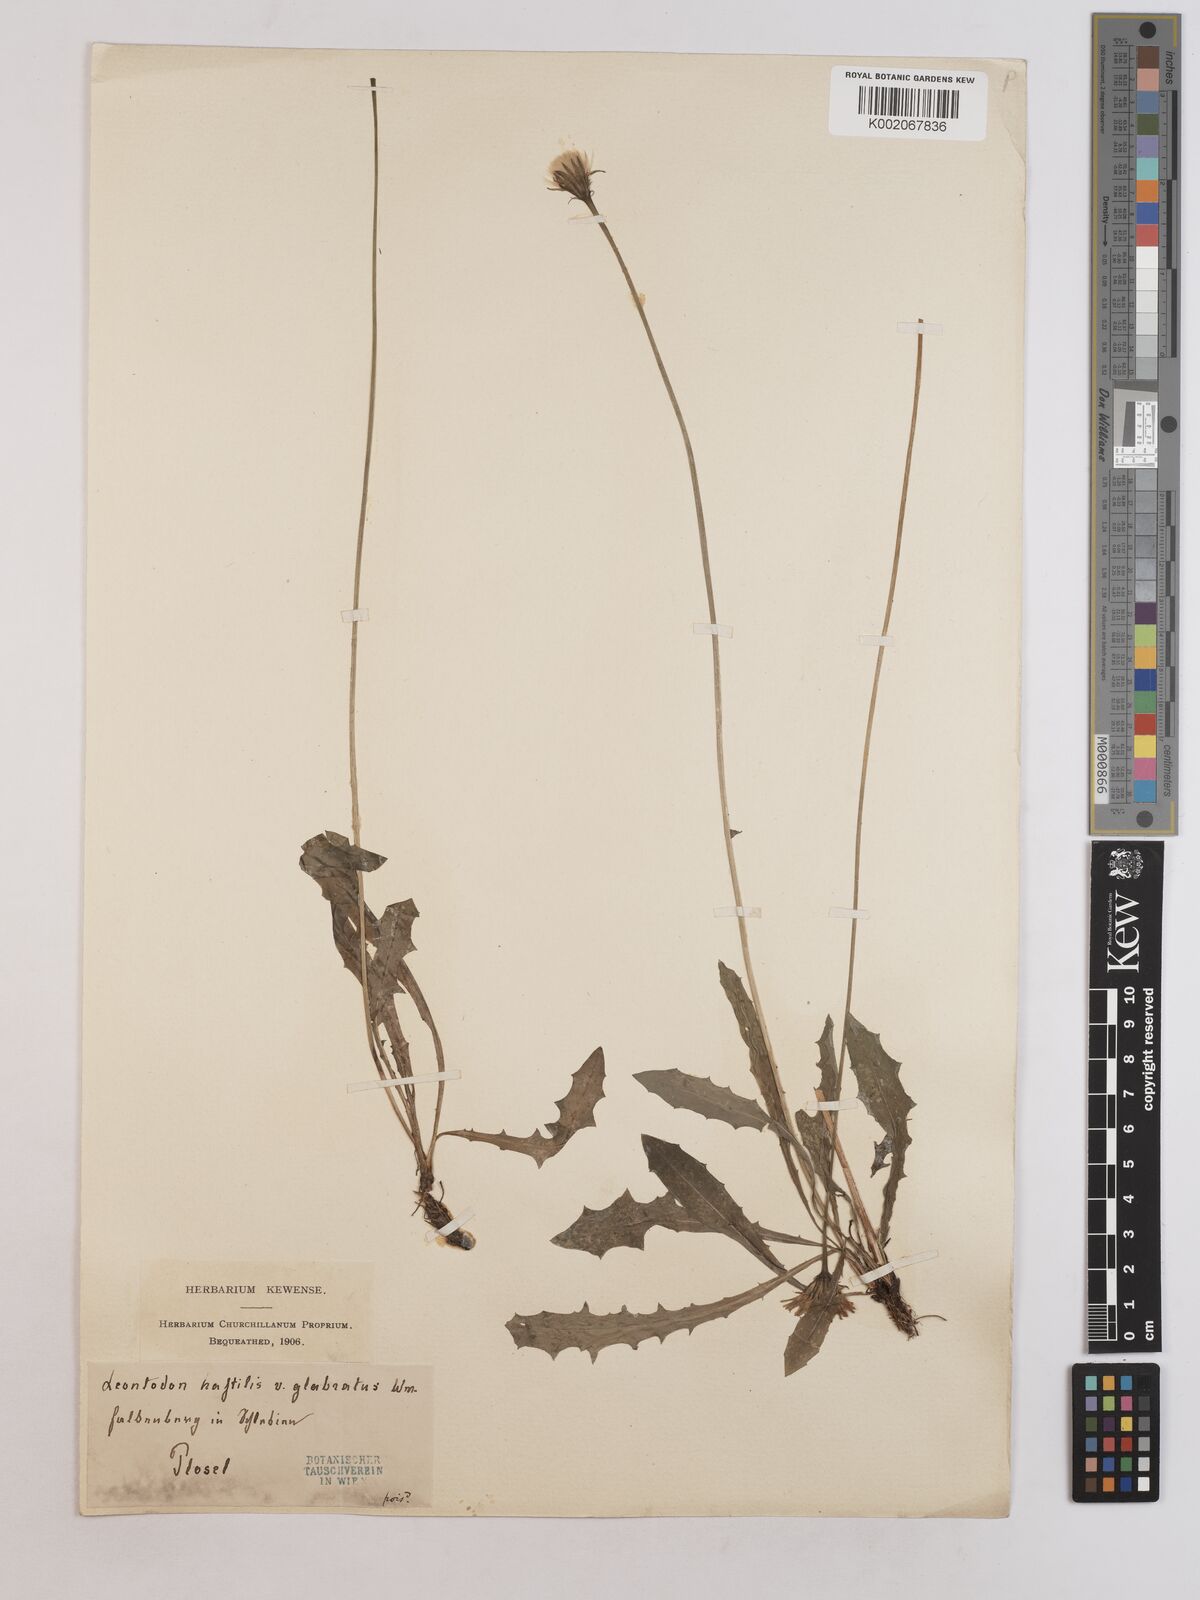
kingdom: Plantae
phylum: Tracheophyta
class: Magnoliopsida
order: Asterales
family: Asteraceae
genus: Leontodon
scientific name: Leontodon hispidus
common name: Rough hawkbit
